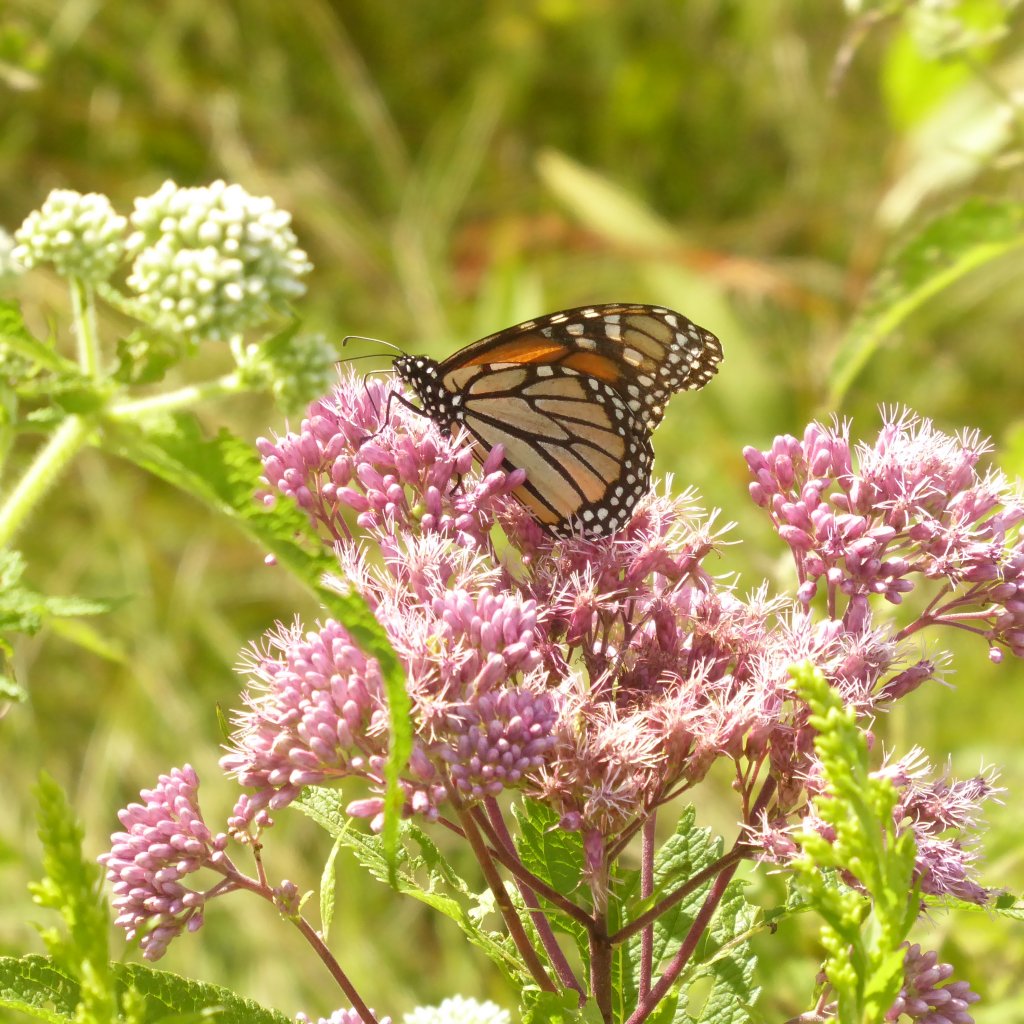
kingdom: Animalia
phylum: Arthropoda
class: Insecta
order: Lepidoptera
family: Nymphalidae
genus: Danaus
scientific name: Danaus plexippus
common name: Monarch
